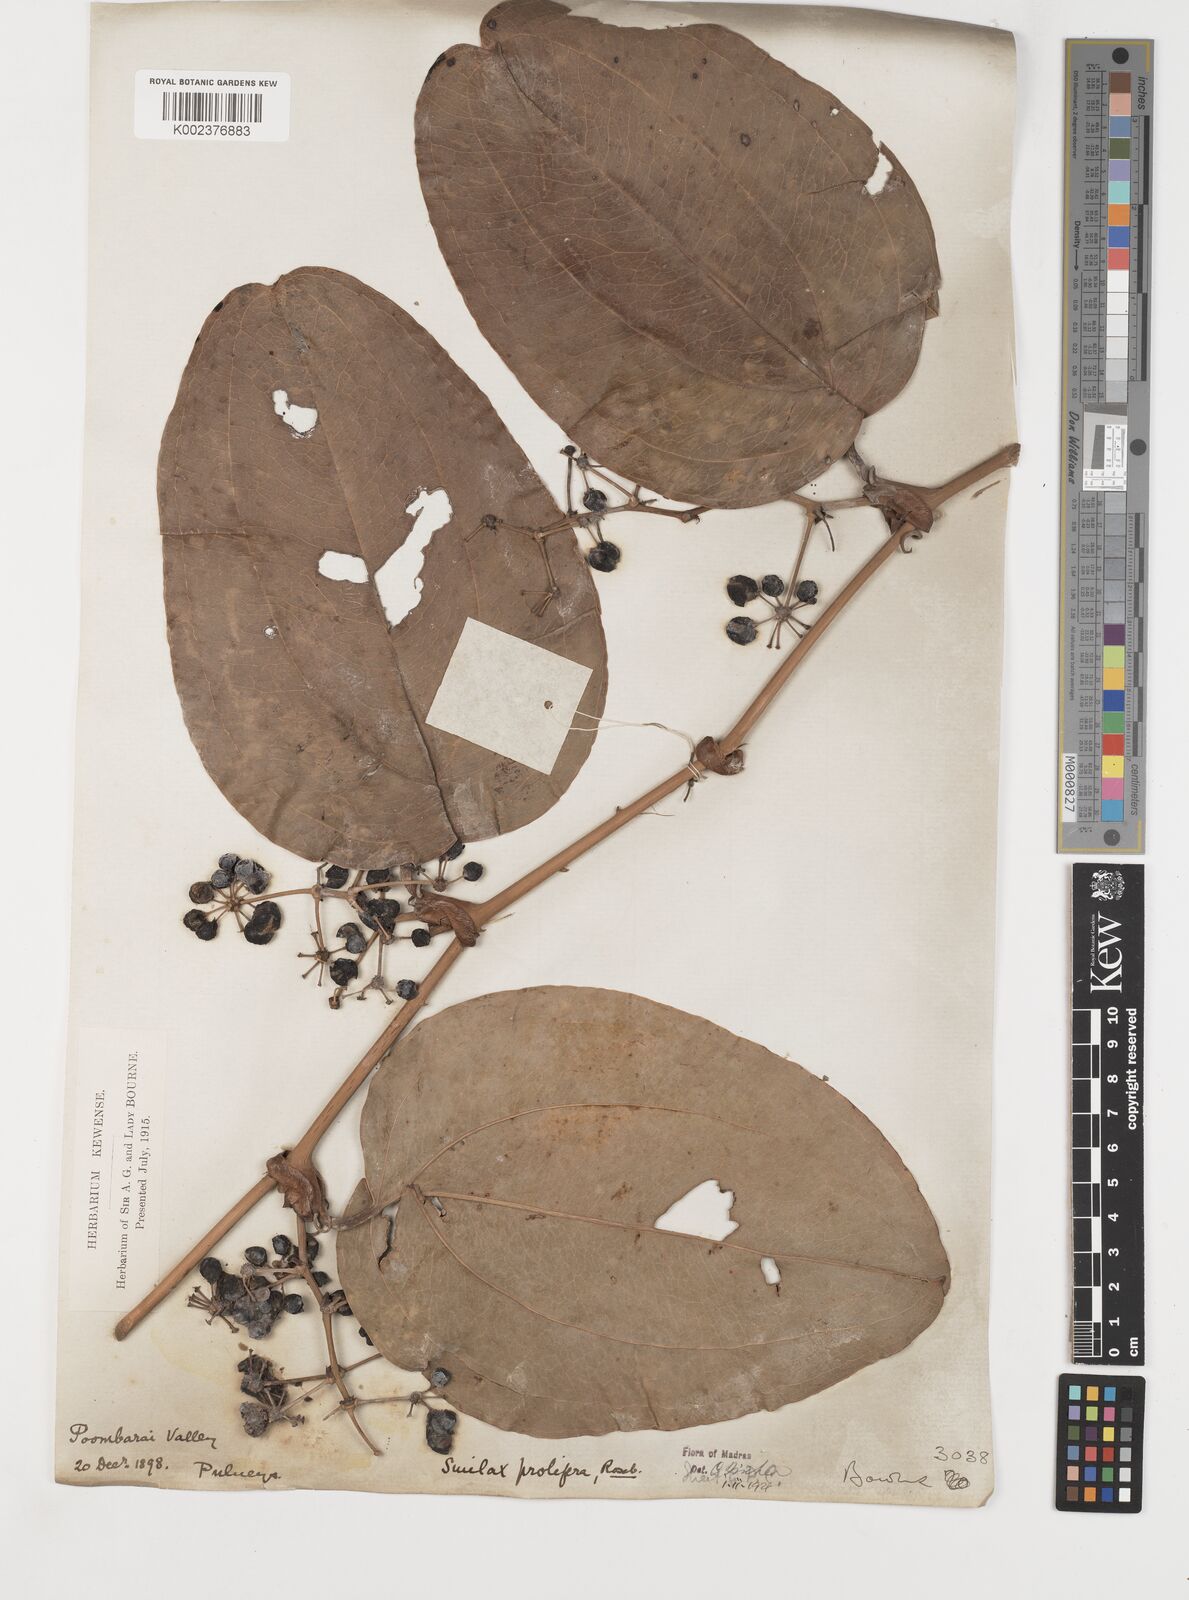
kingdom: Plantae
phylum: Tracheophyta
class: Liliopsida
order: Liliales
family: Smilacaceae
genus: Smilax
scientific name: Smilax prolifera
